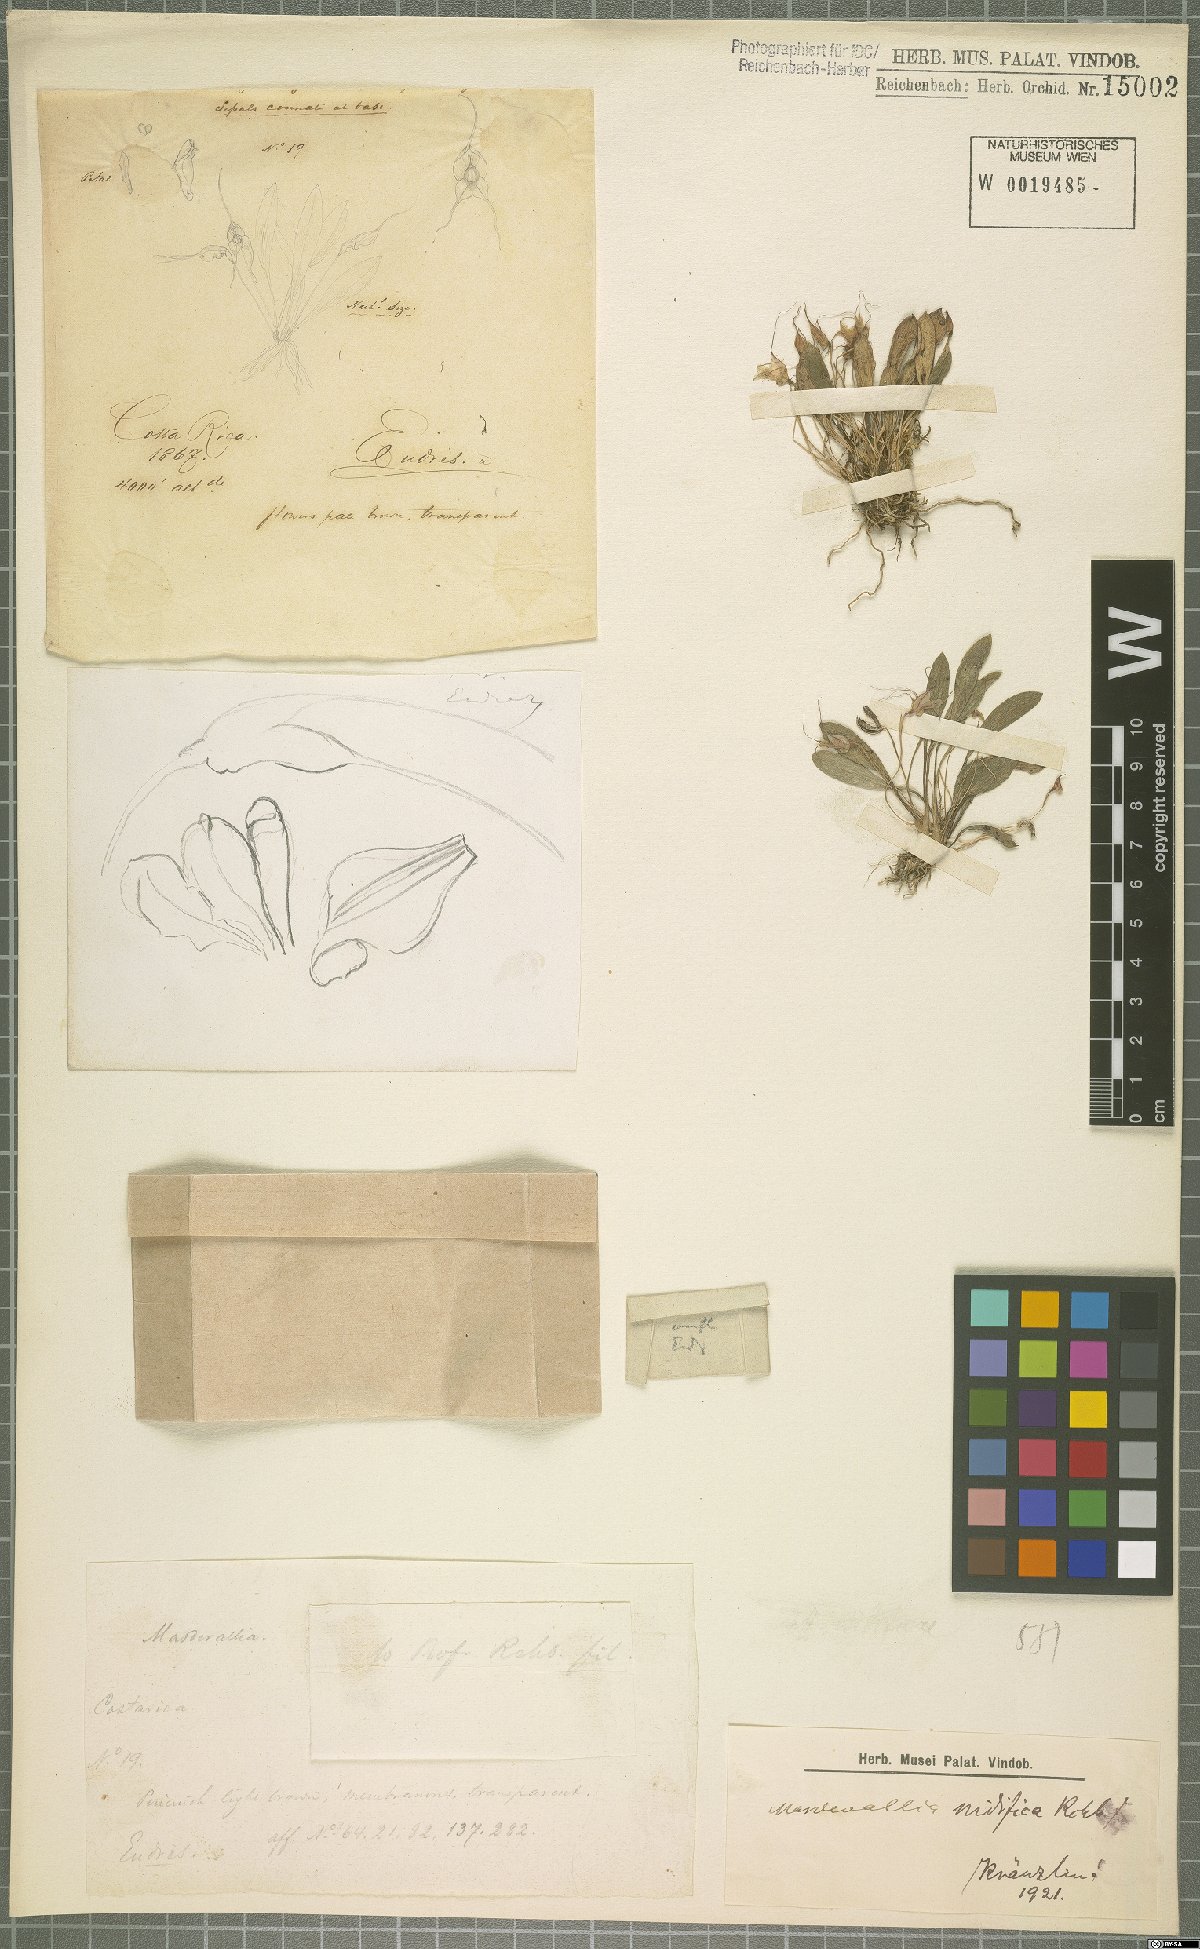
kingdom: Plantae
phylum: Tracheophyta
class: Liliopsida
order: Asparagales
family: Orchidaceae
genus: Masdevallia
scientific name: Masdevallia nidifica
